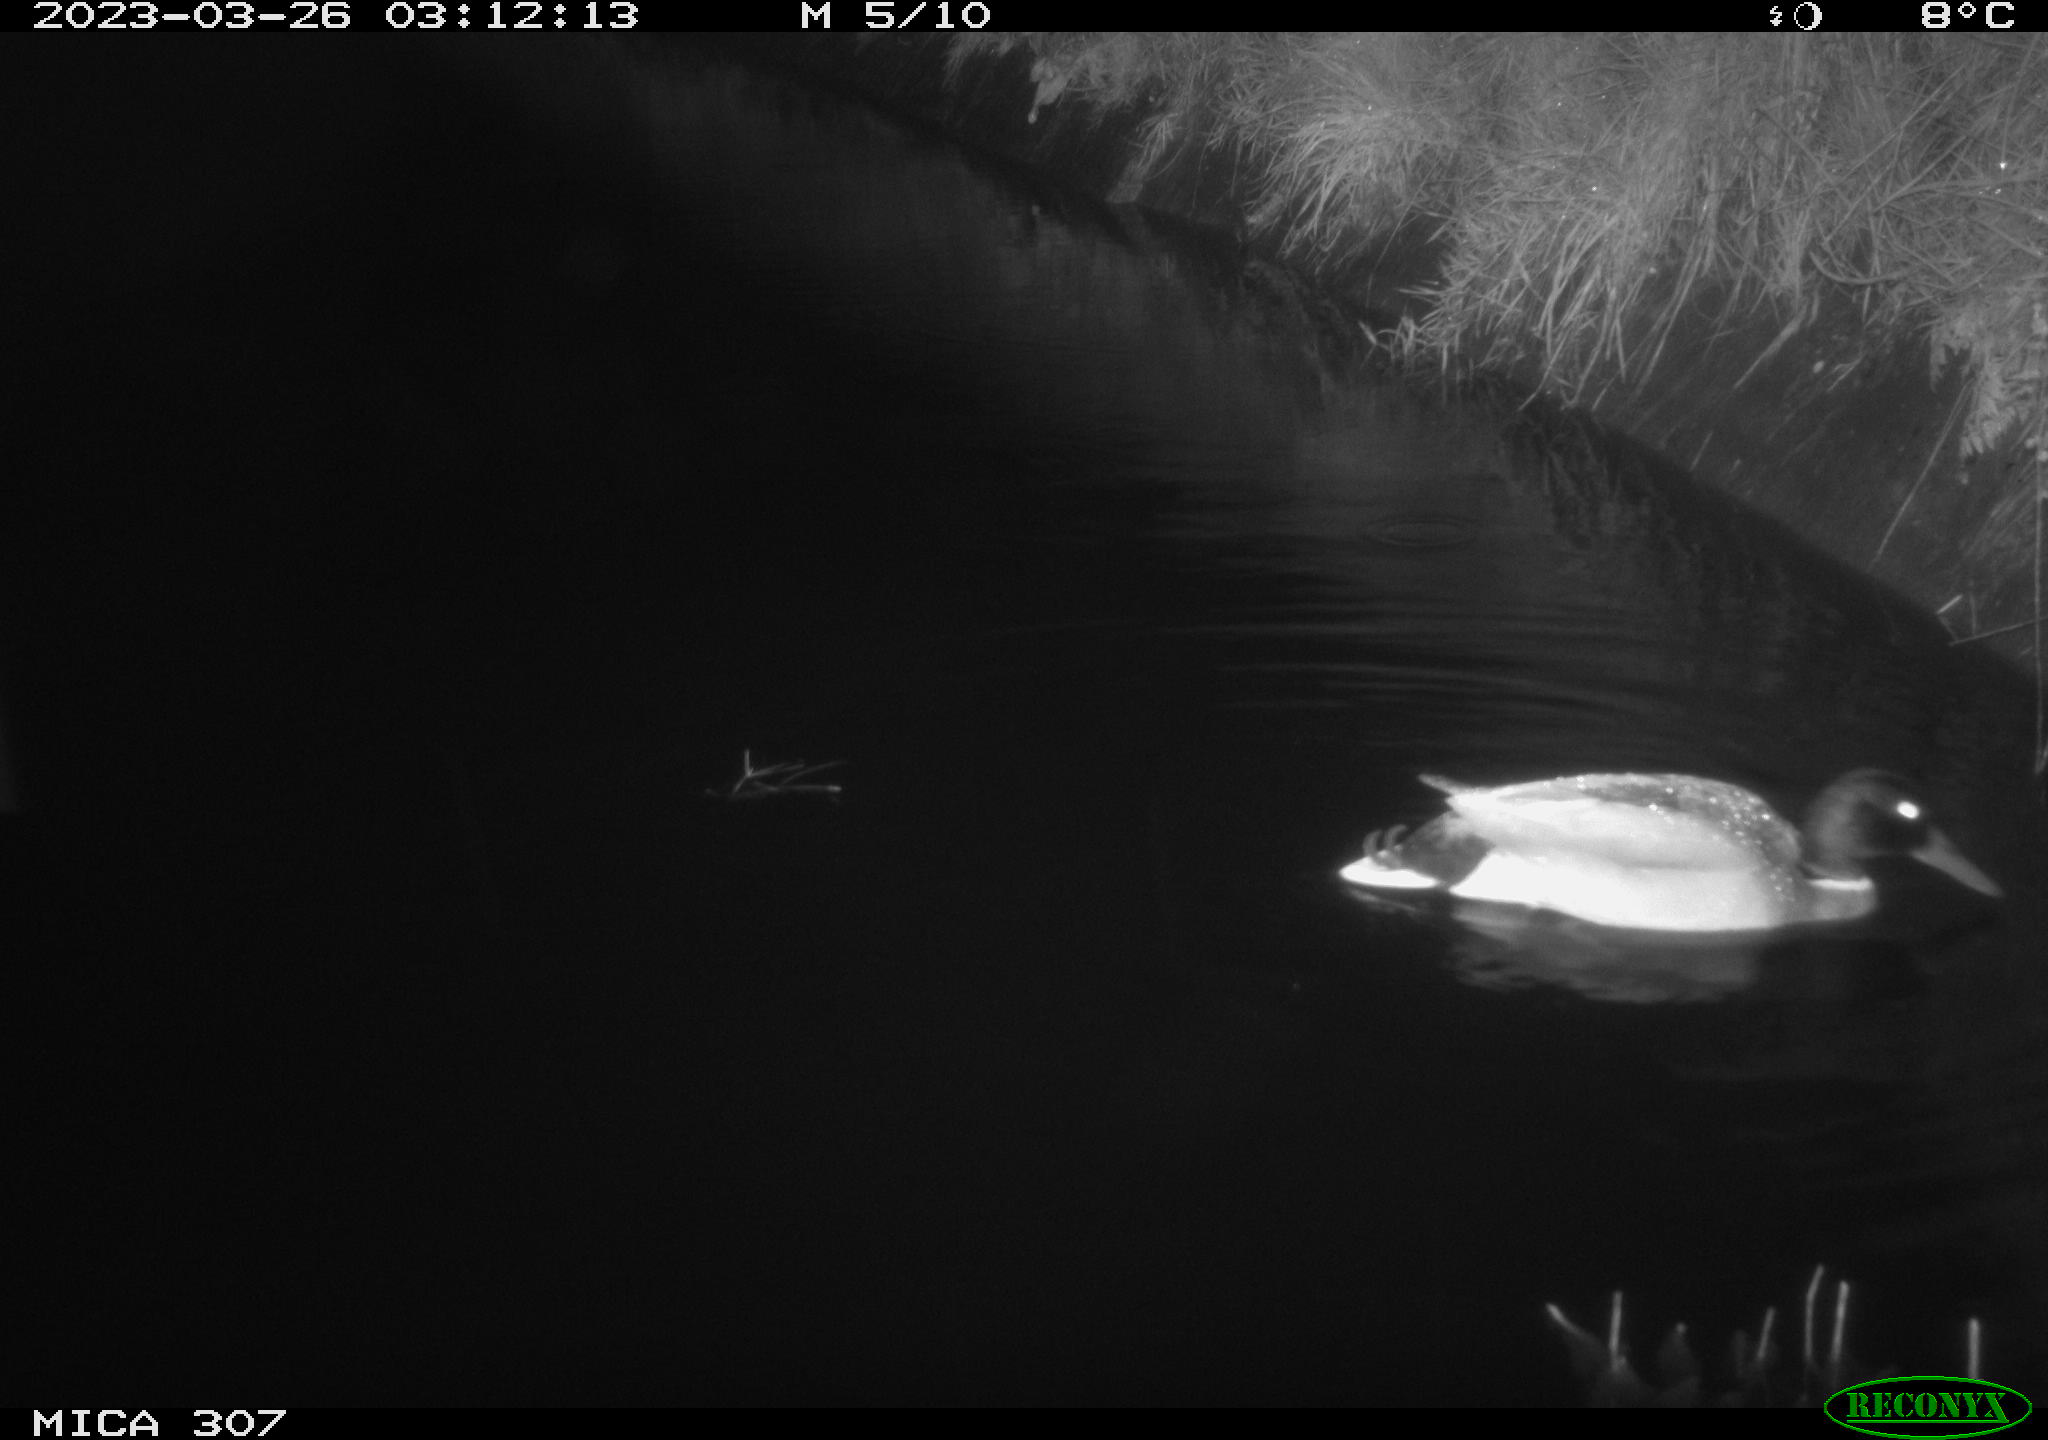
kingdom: Animalia
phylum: Chordata
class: Aves
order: Anseriformes
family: Anatidae
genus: Anas
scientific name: Anas
